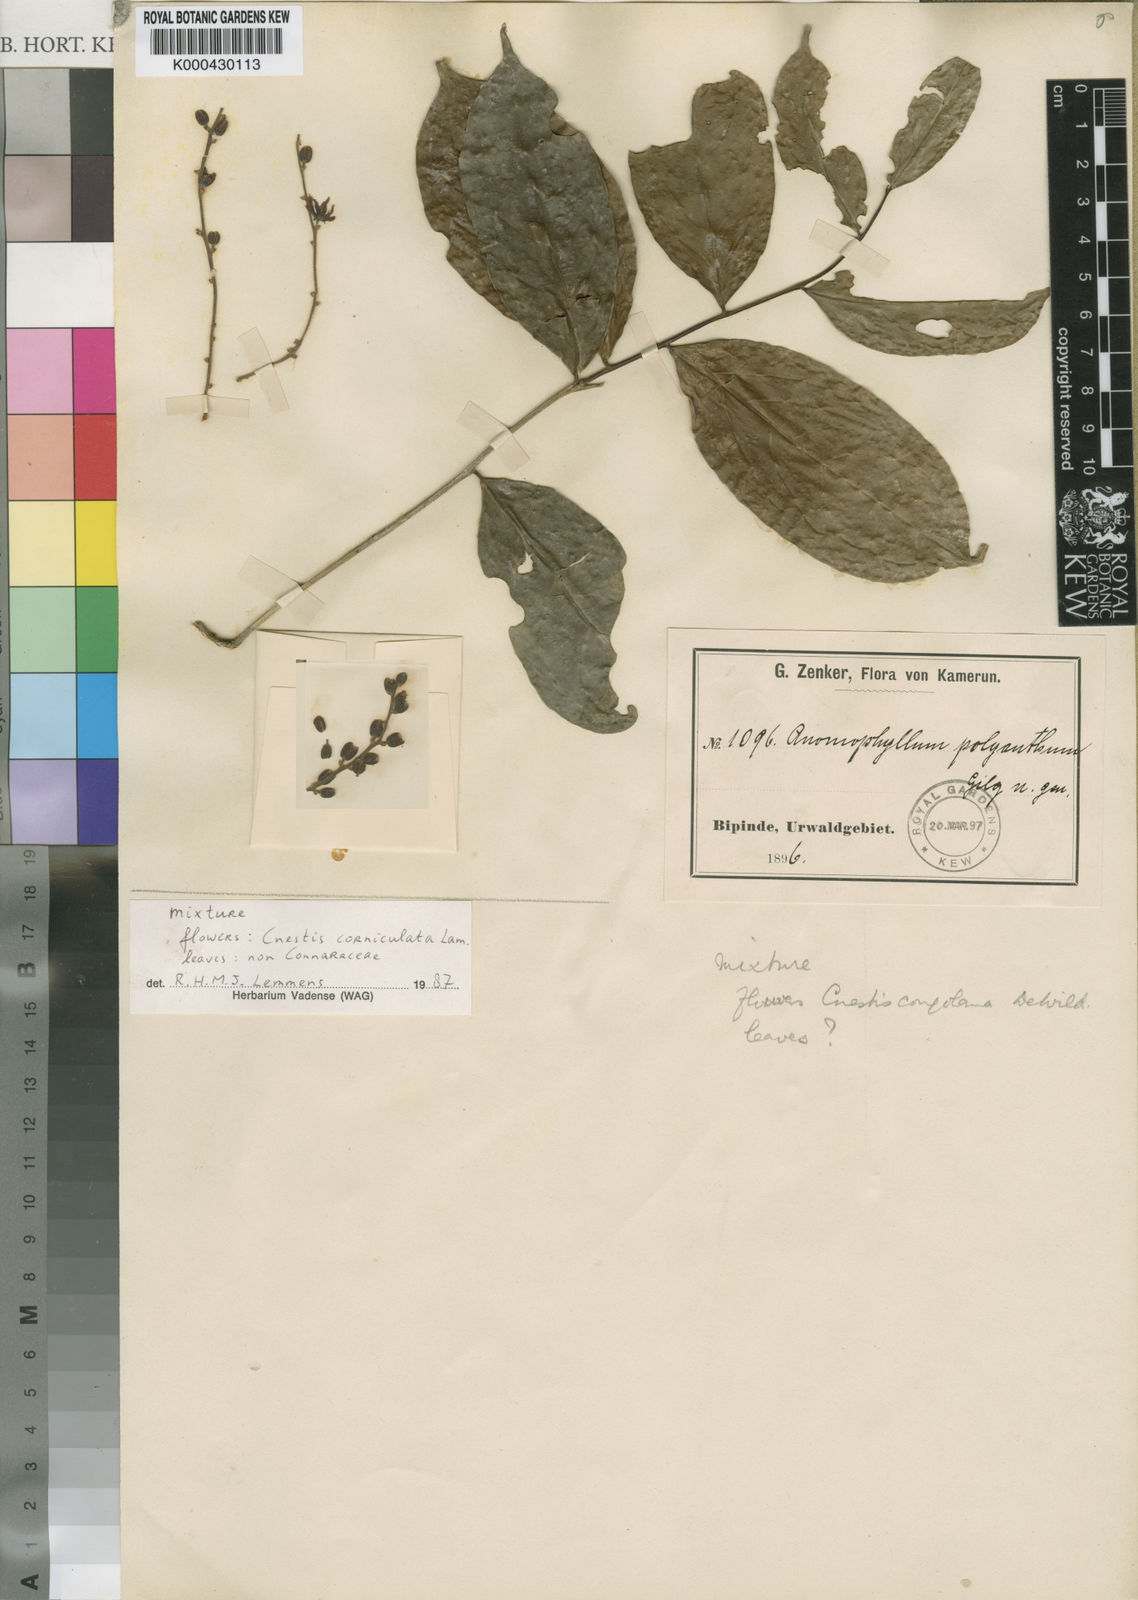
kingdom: Plantae
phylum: Tracheophyta
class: Magnoliopsida
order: Oxalidales
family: Connaraceae
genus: Cnestis
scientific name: Cnestis corniculata
